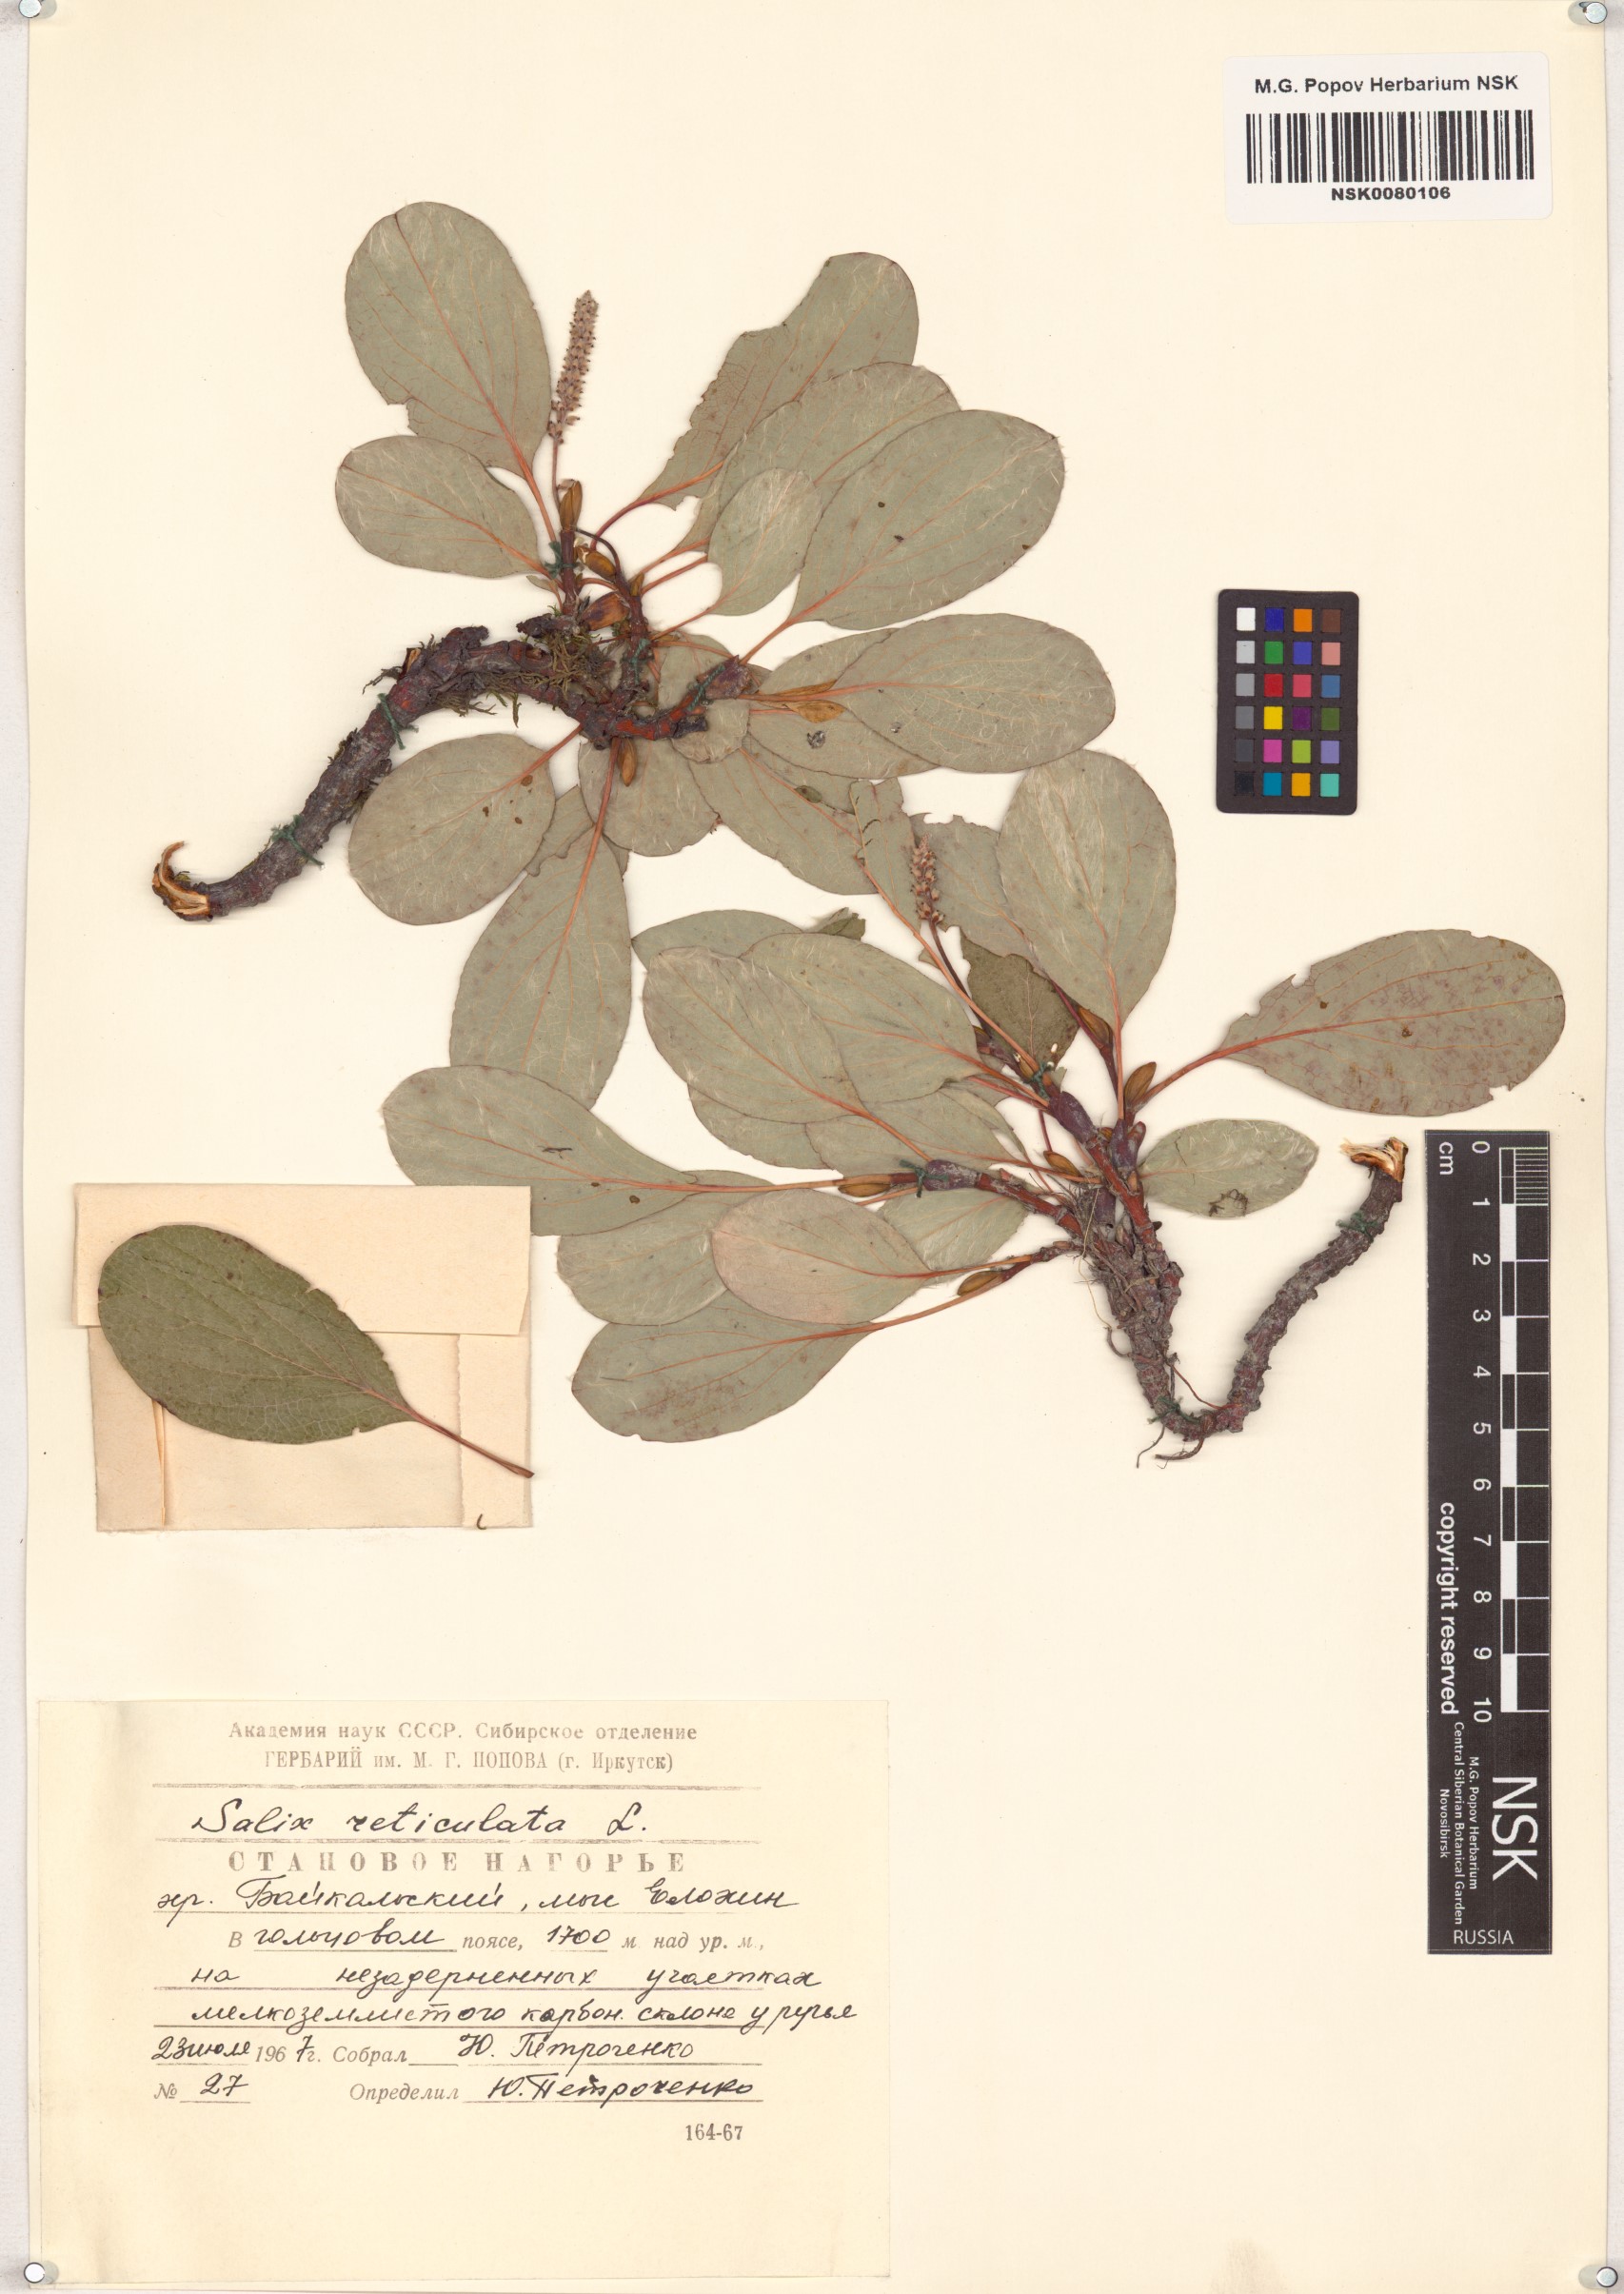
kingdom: Plantae
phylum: Tracheophyta
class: Magnoliopsida
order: Malpighiales
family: Salicaceae
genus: Salix
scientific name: Salix reticulata
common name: Net-leaved willow
